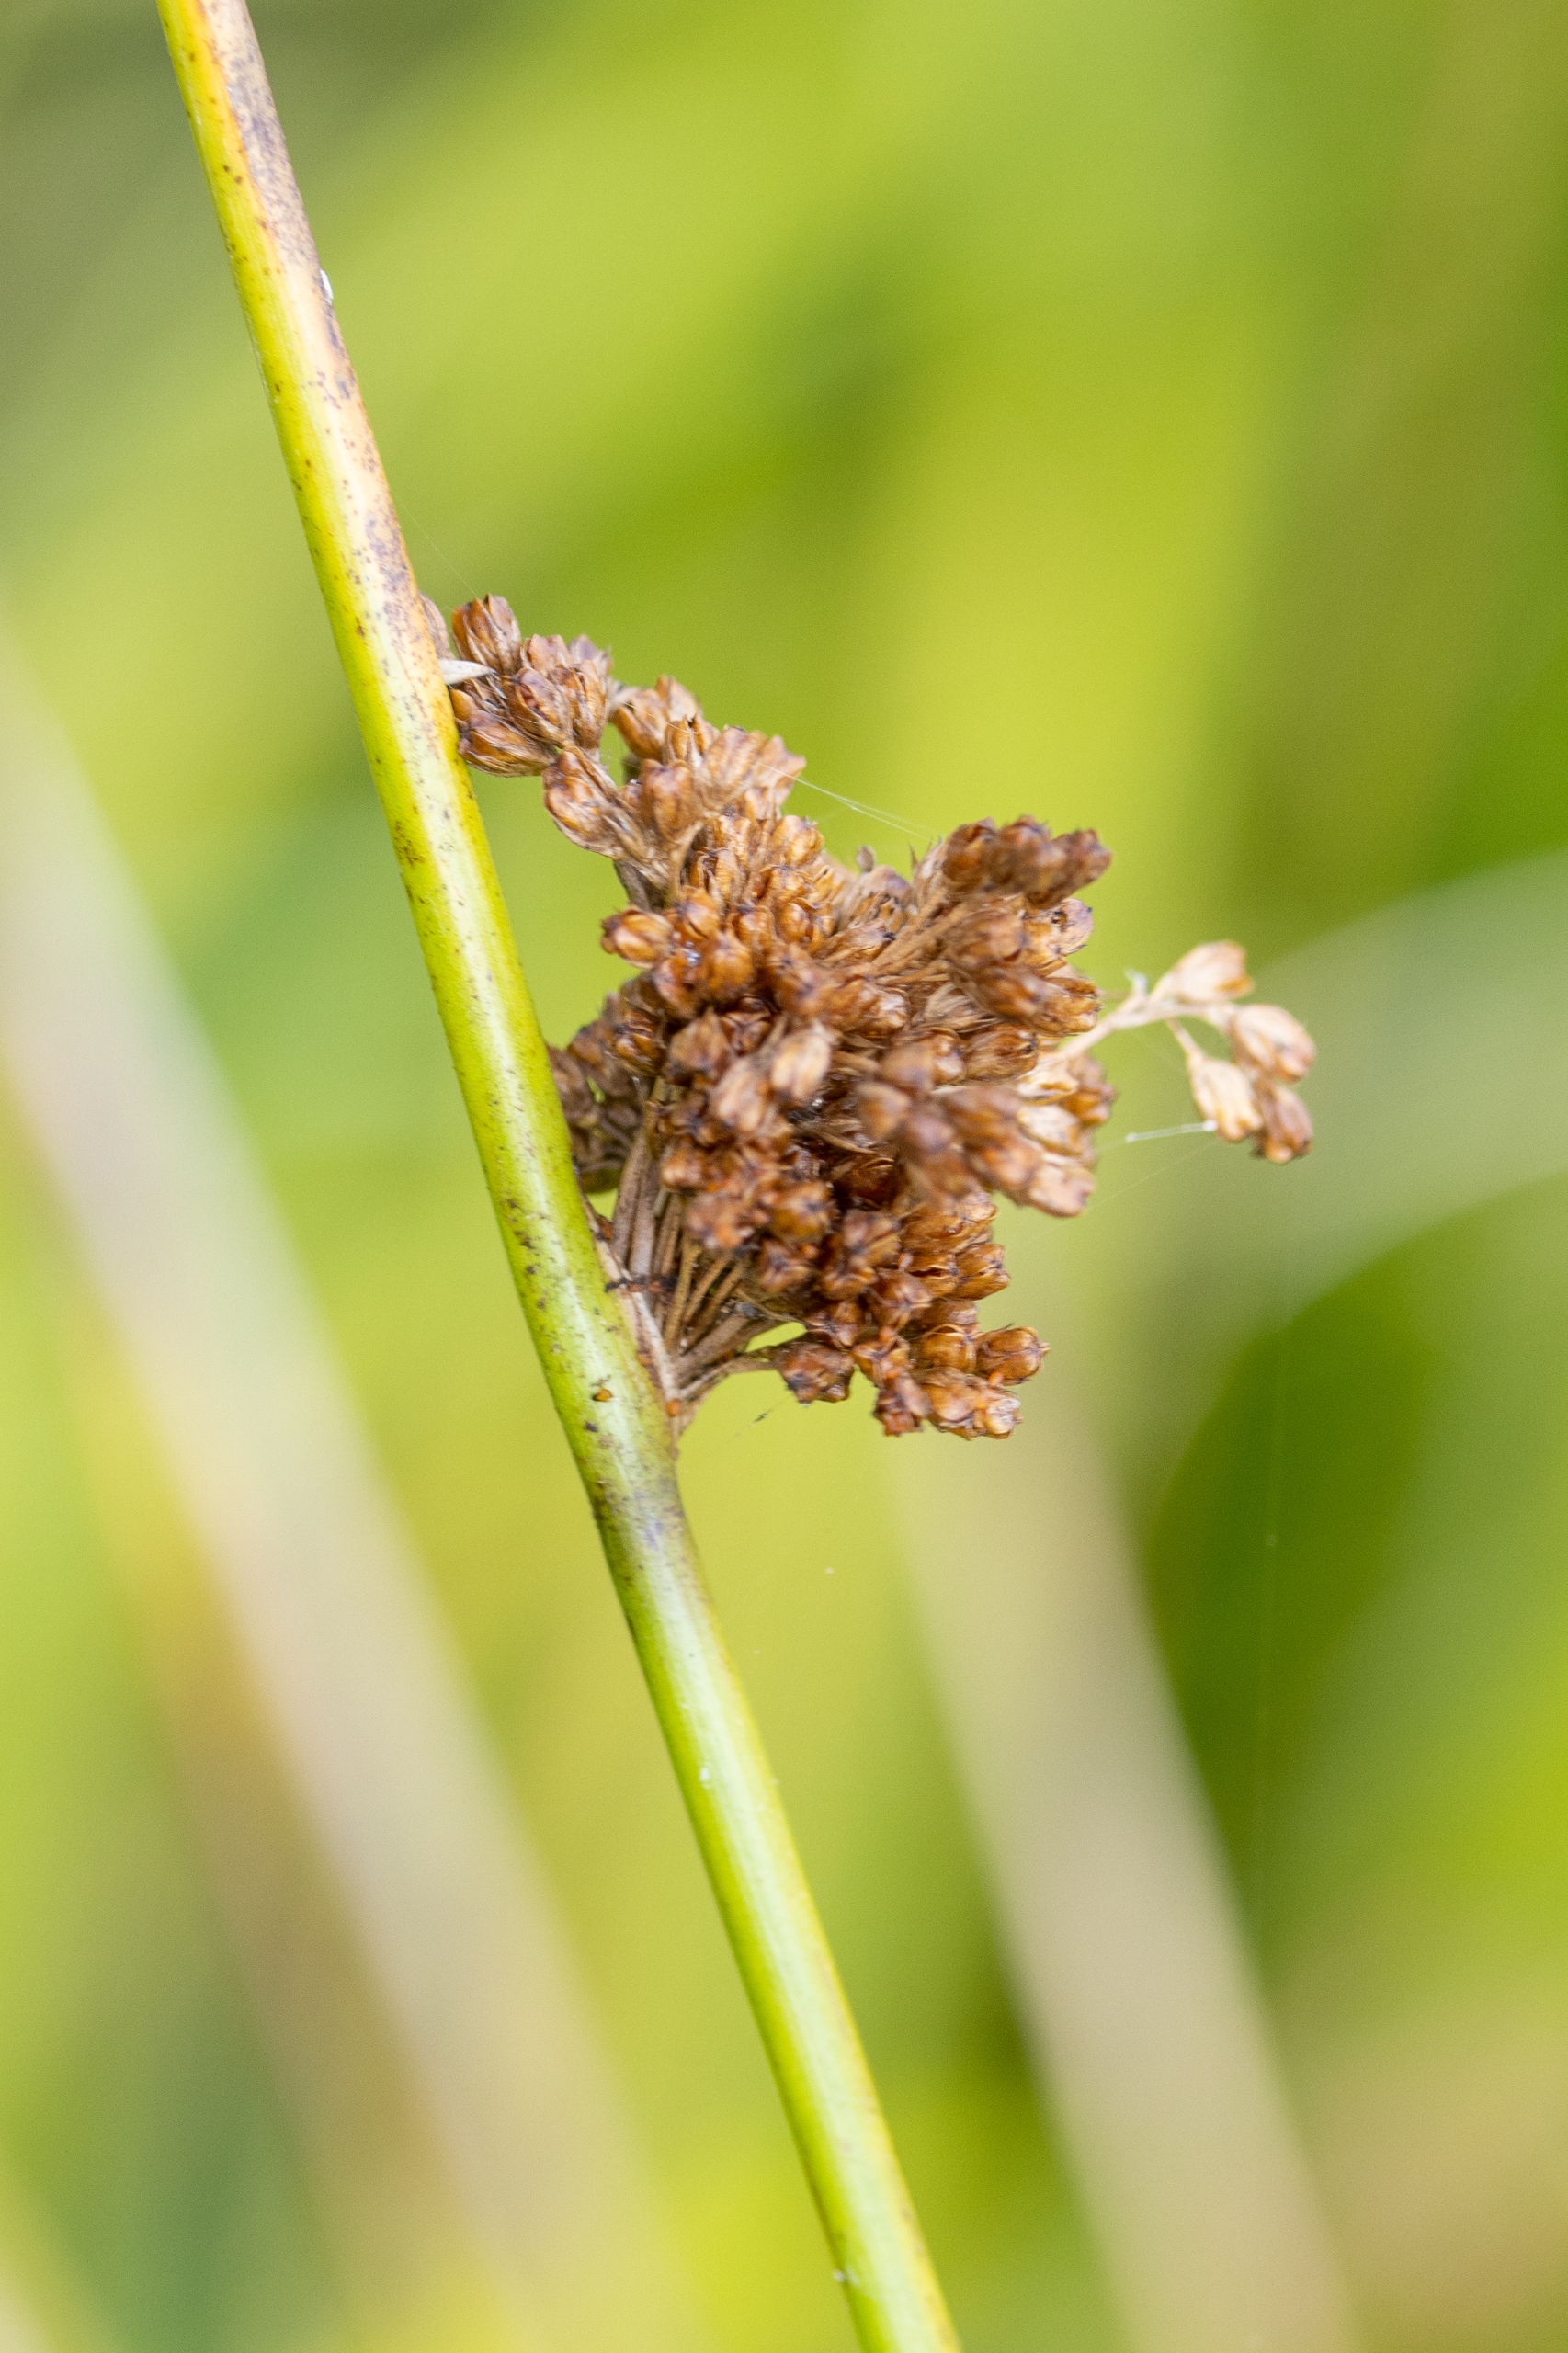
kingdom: Plantae
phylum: Tracheophyta
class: Liliopsida
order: Poales
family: Juncaceae
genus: Juncus
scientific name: Juncus effusus
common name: Lyse-siv
